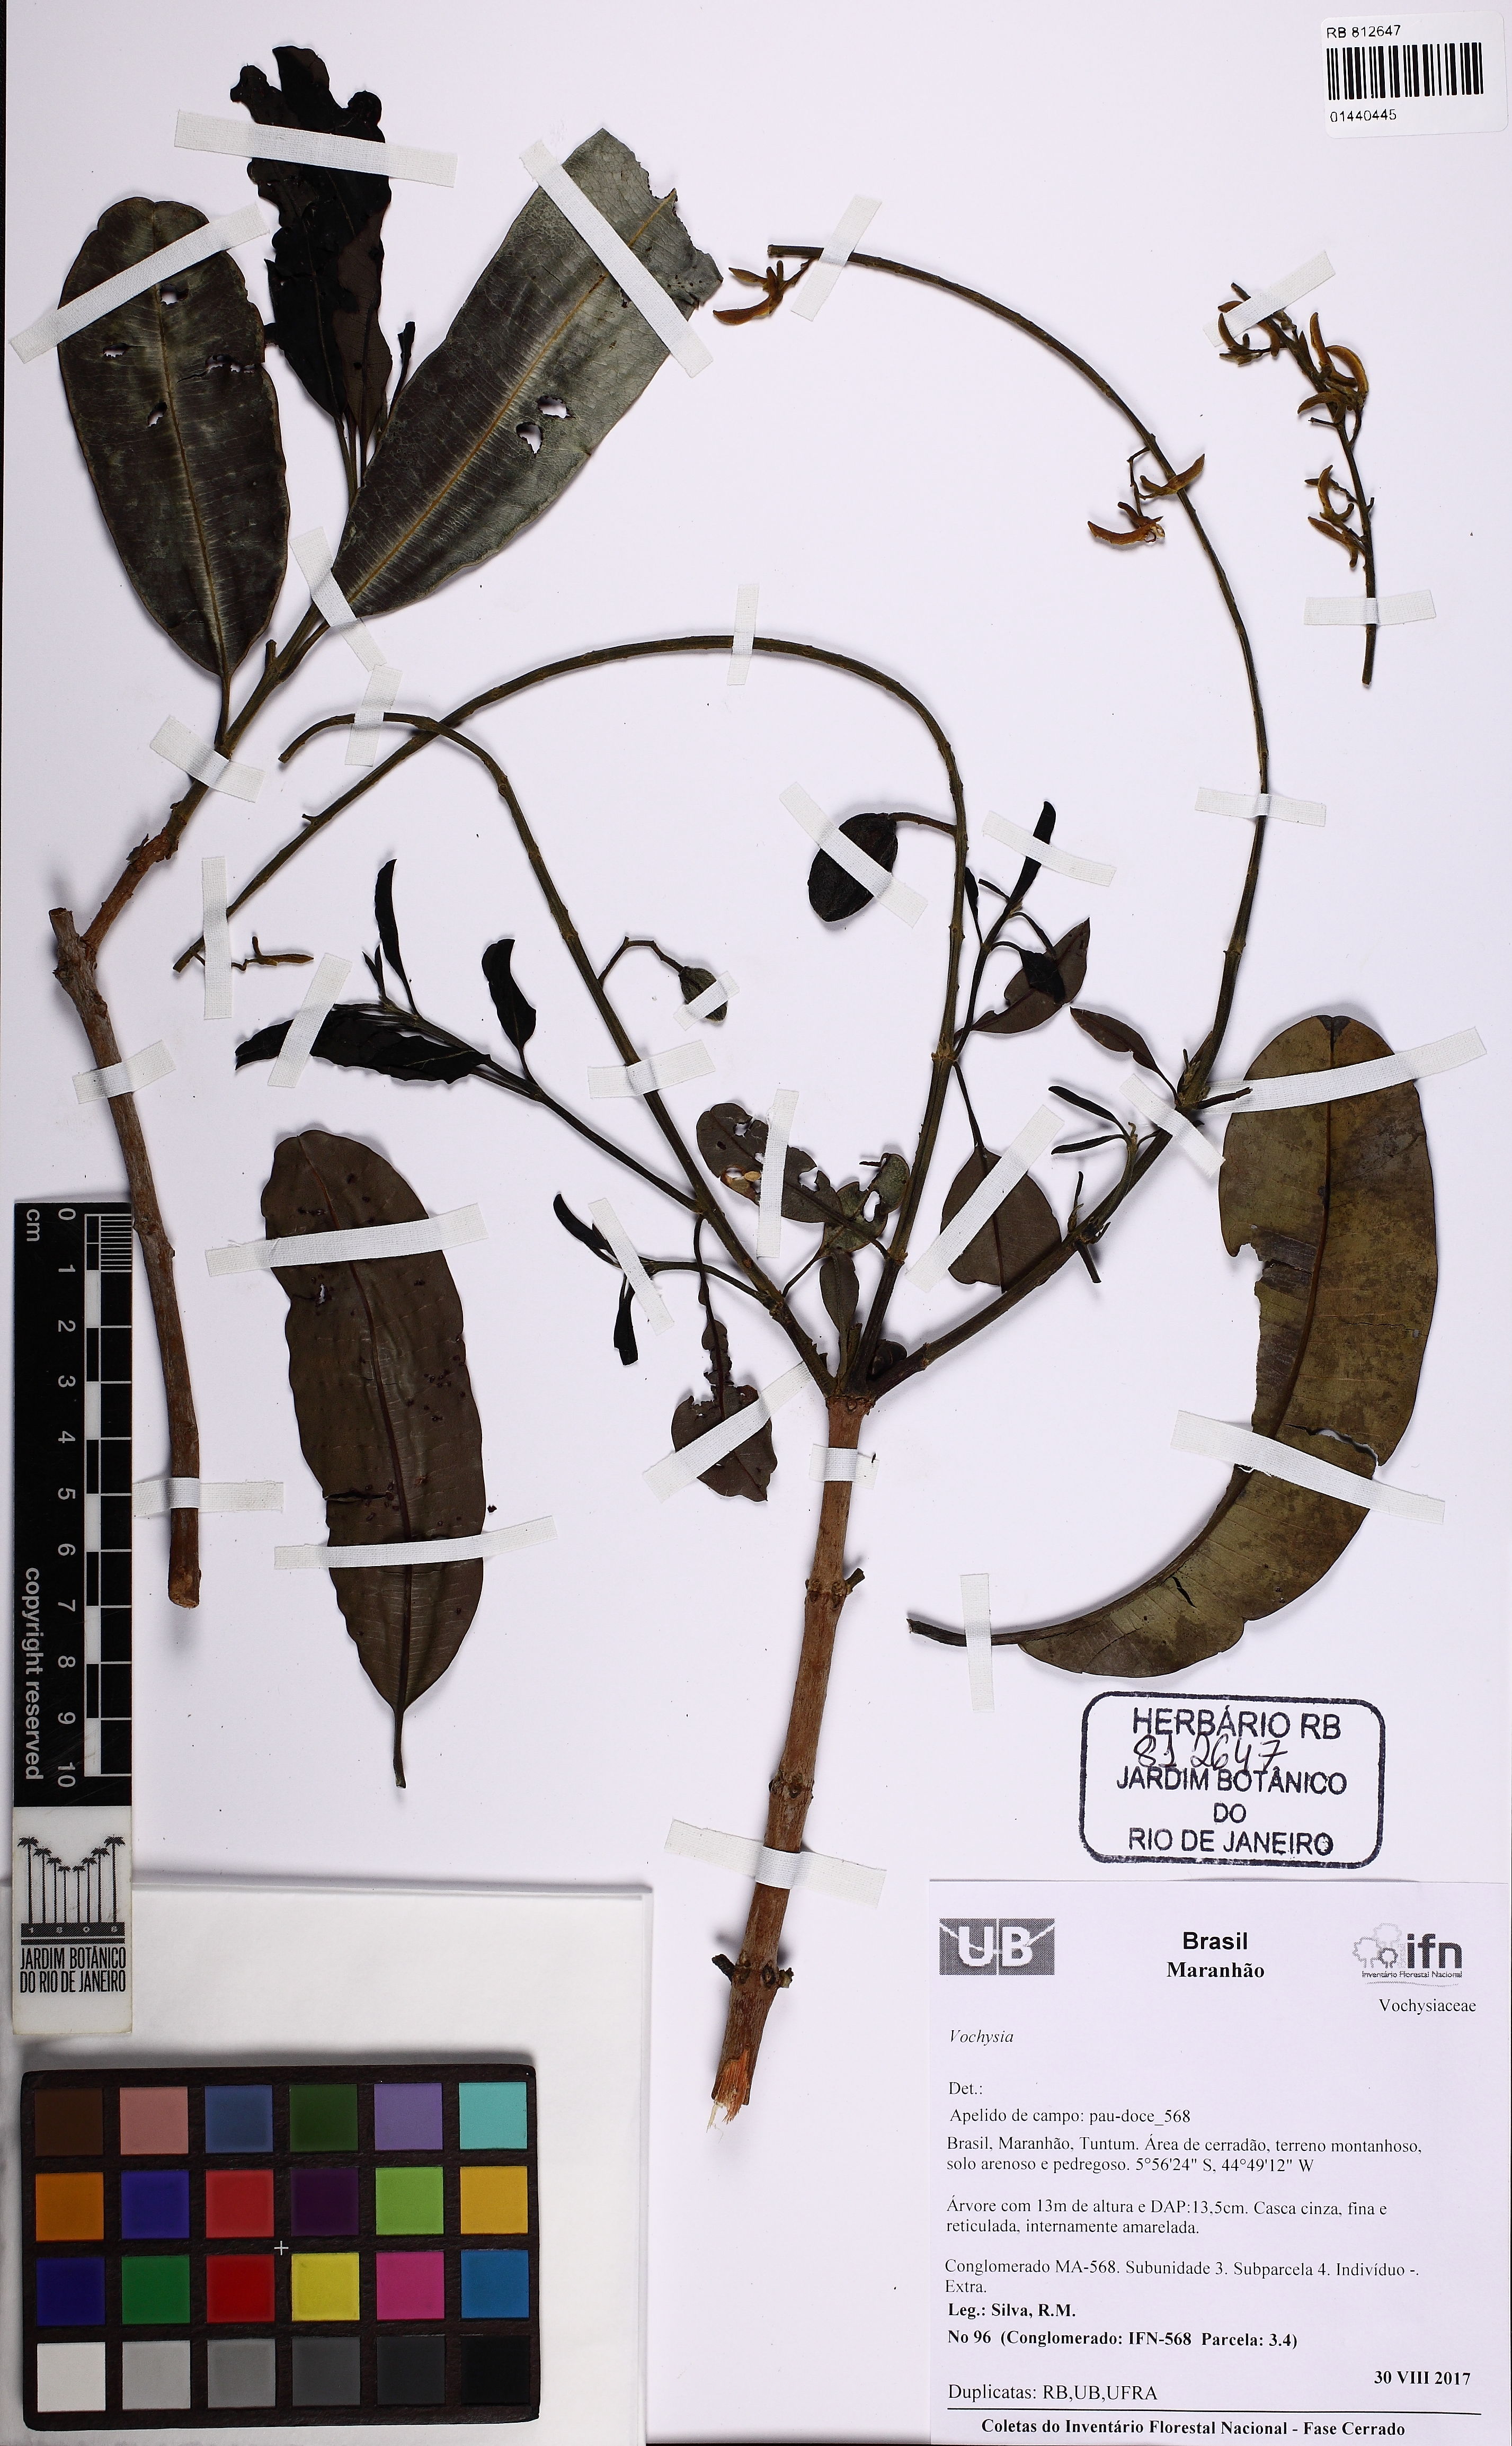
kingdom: Plantae
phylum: Tracheophyta
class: Magnoliopsida
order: Myrtales
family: Vochysiaceae
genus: Vochysia
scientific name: Vochysia
